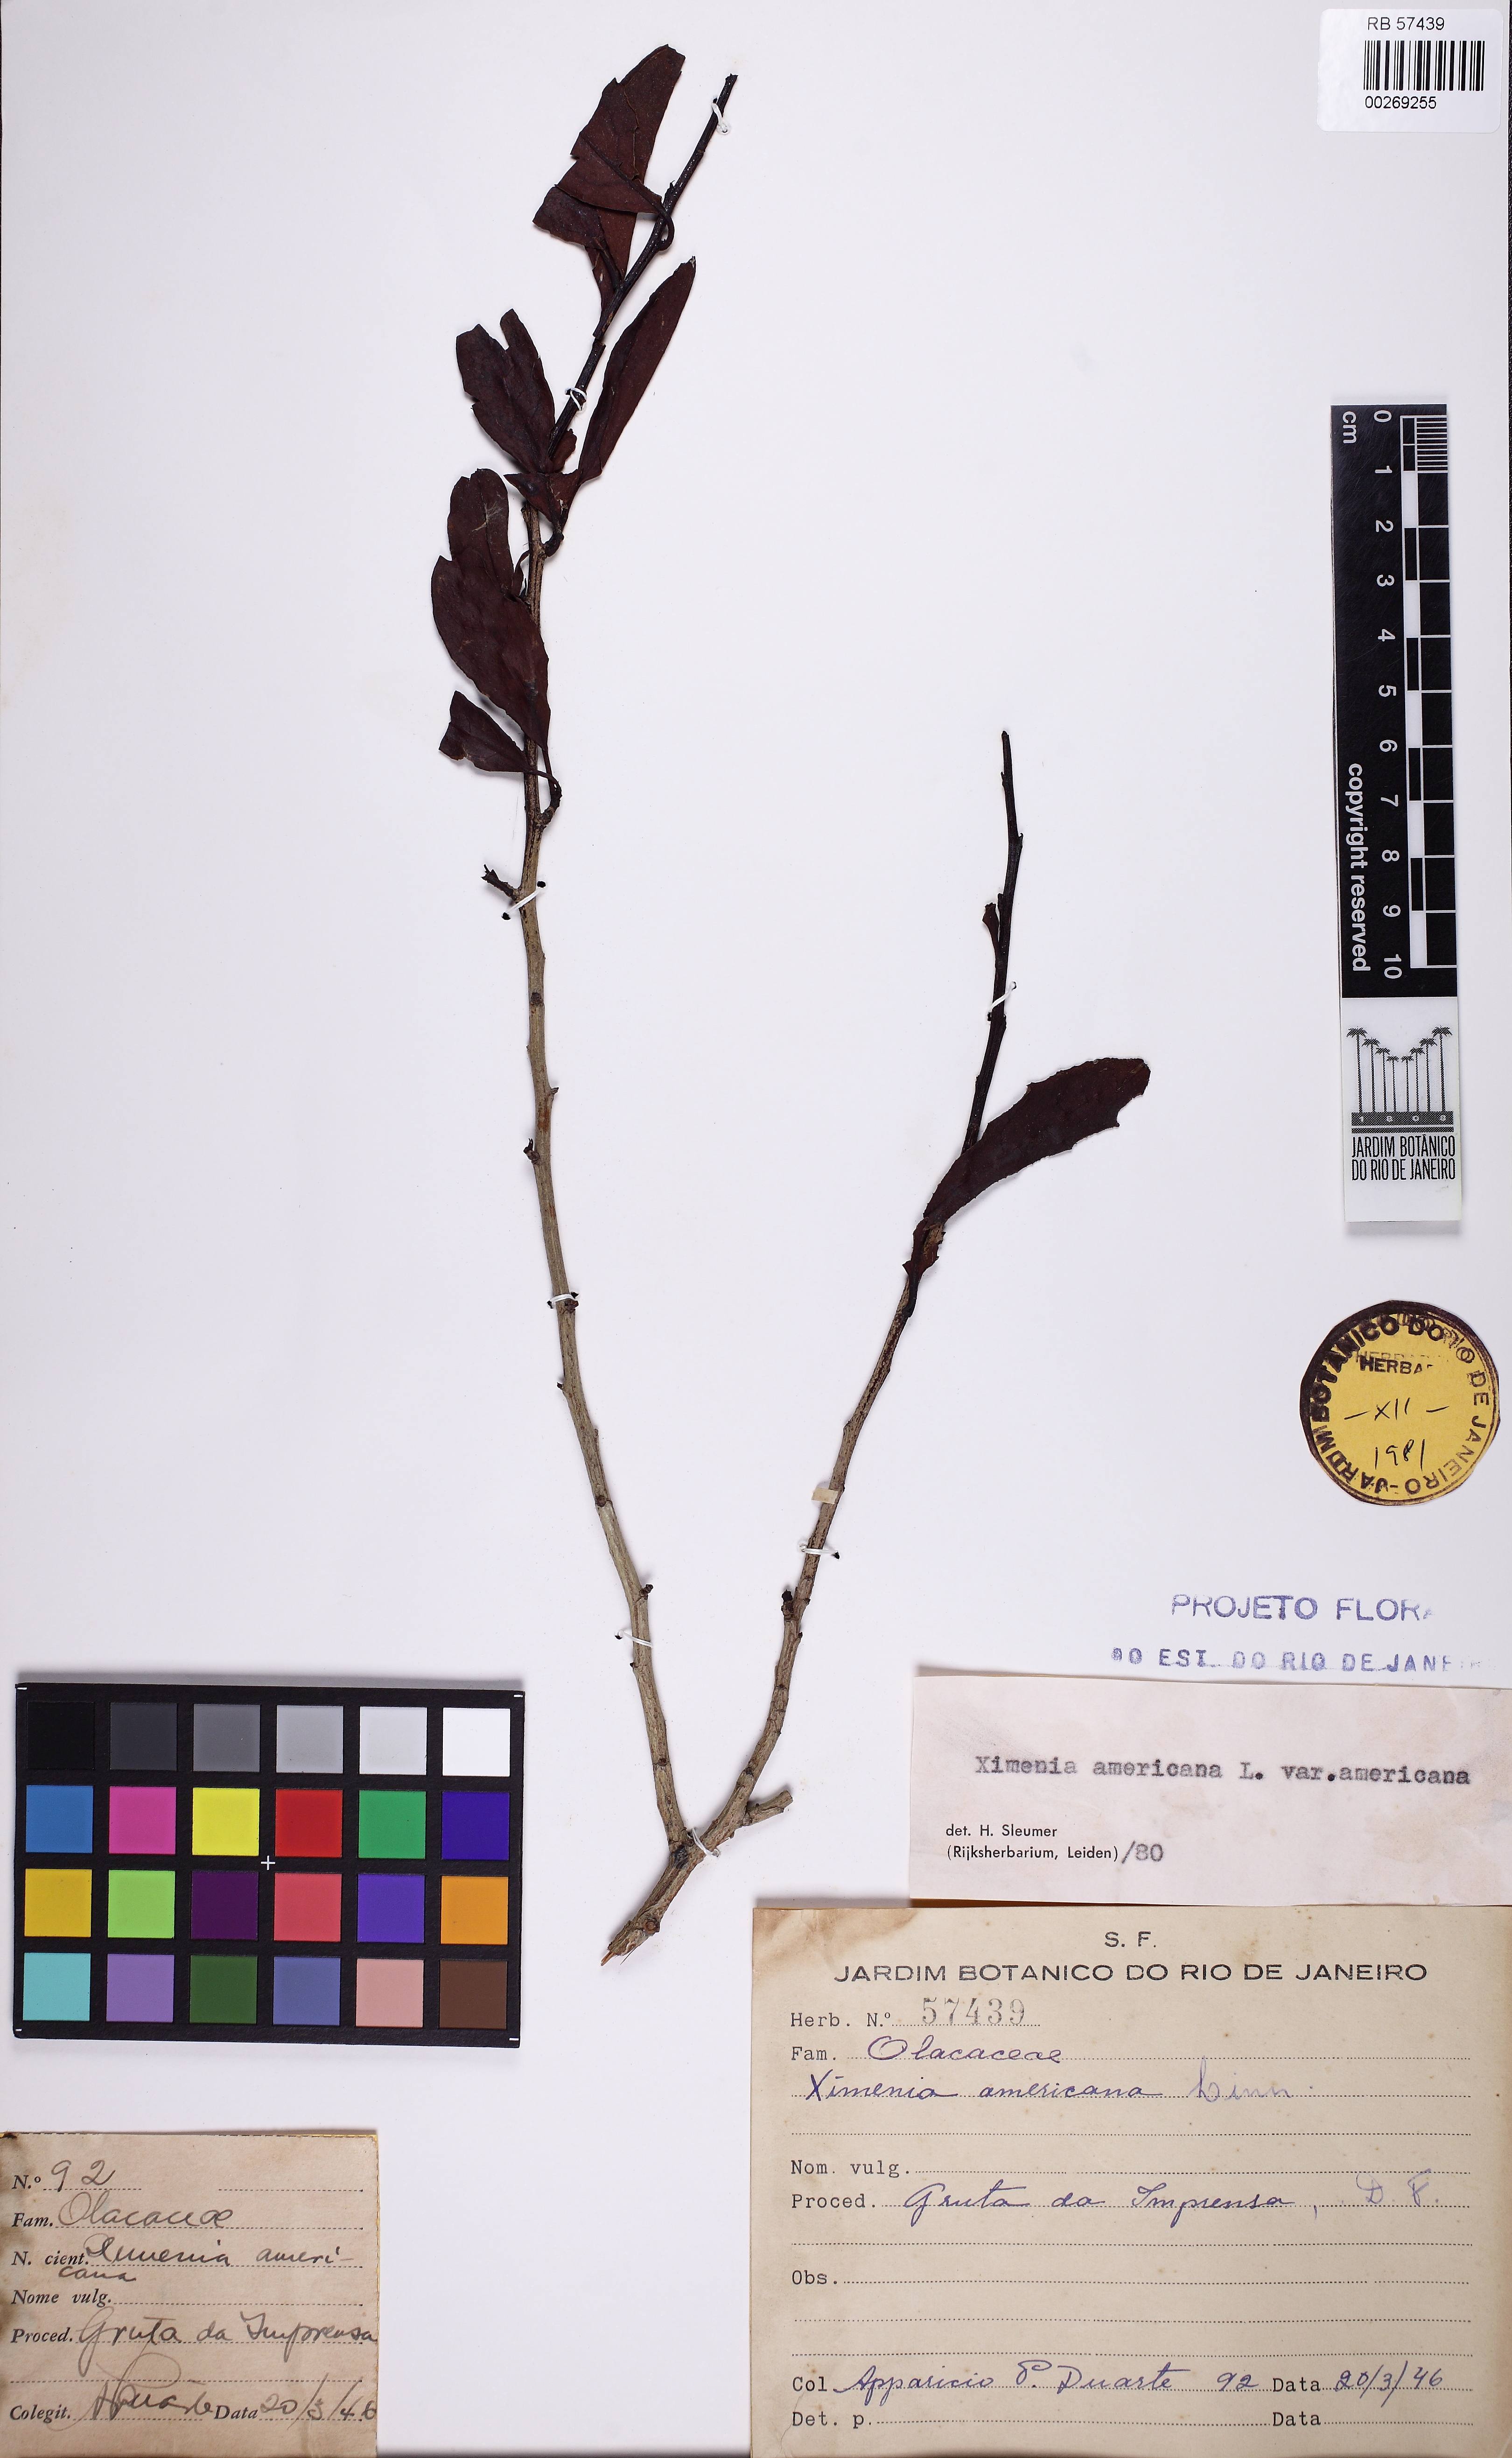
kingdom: Plantae
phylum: Tracheophyta
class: Magnoliopsida
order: Santalales
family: Ximeniaceae
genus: Ximenia
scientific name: Ximenia americana
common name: Tallowwood
